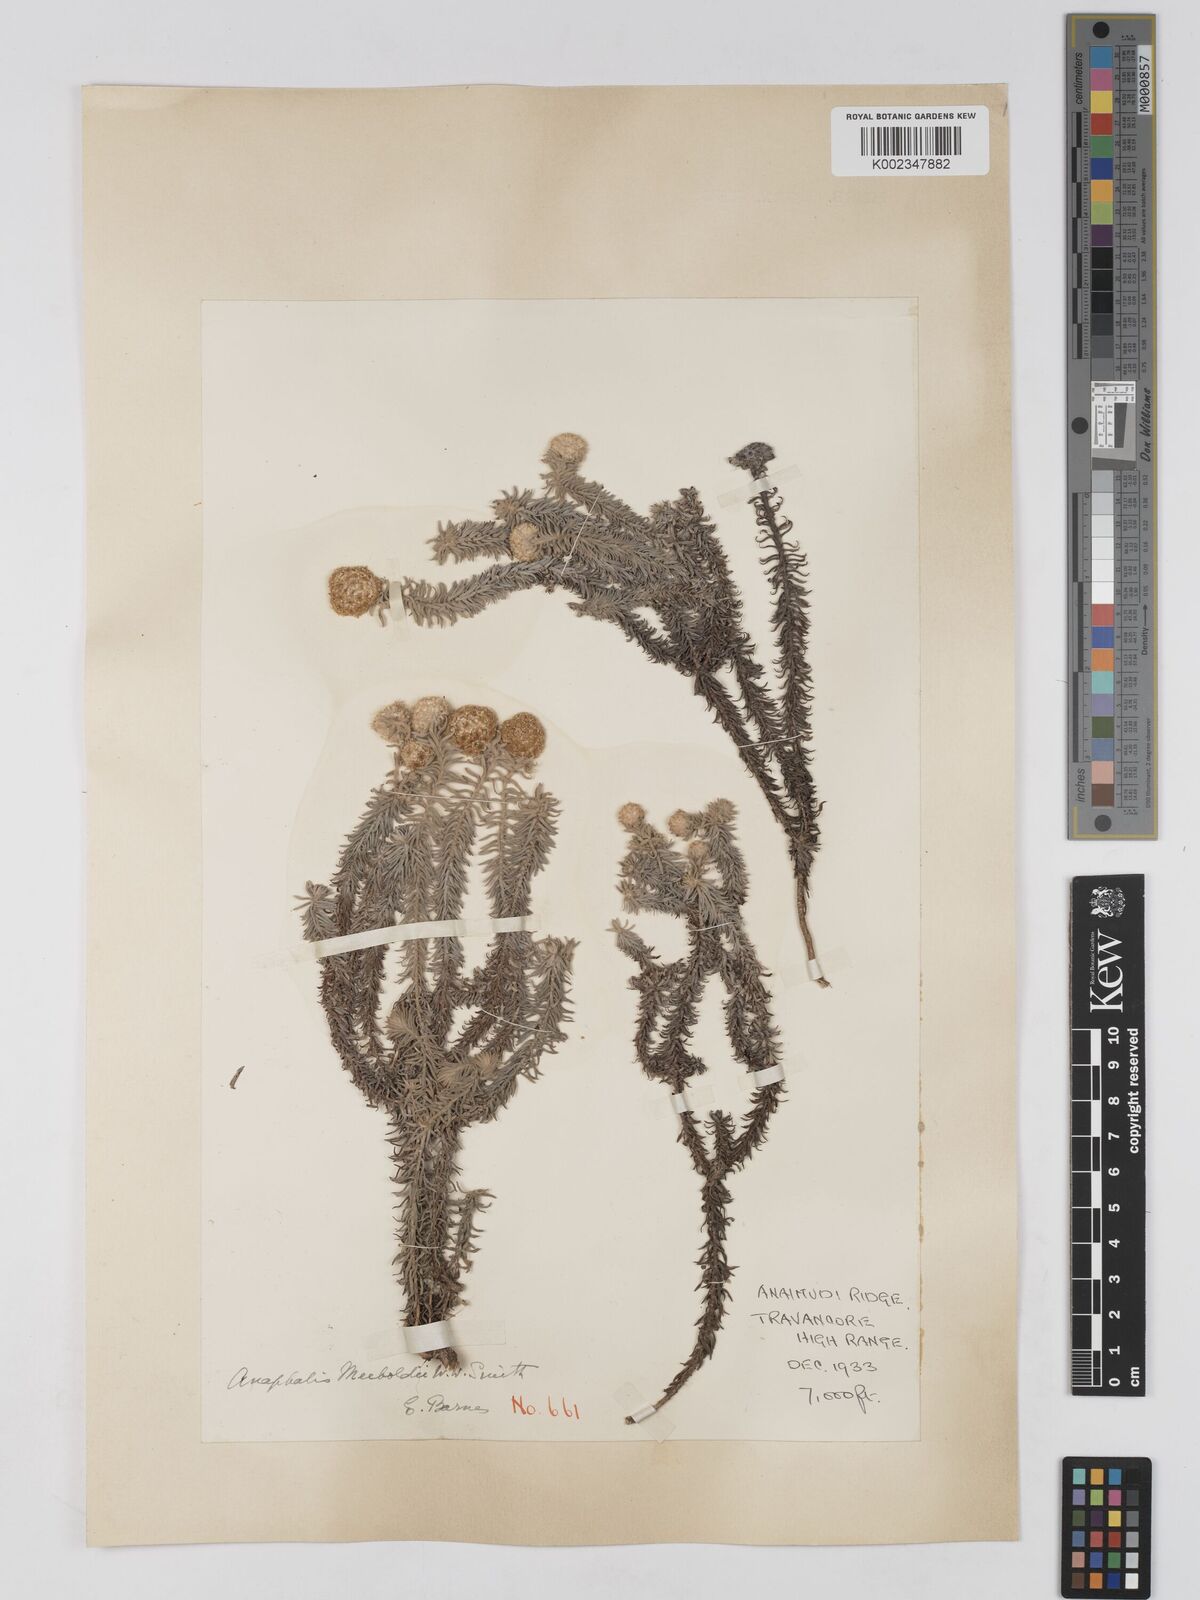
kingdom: Plantae
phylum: Tracheophyta
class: Magnoliopsida
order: Asterales
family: Asteraceae
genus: Anaphalis
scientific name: Anaphalis meeboldii
